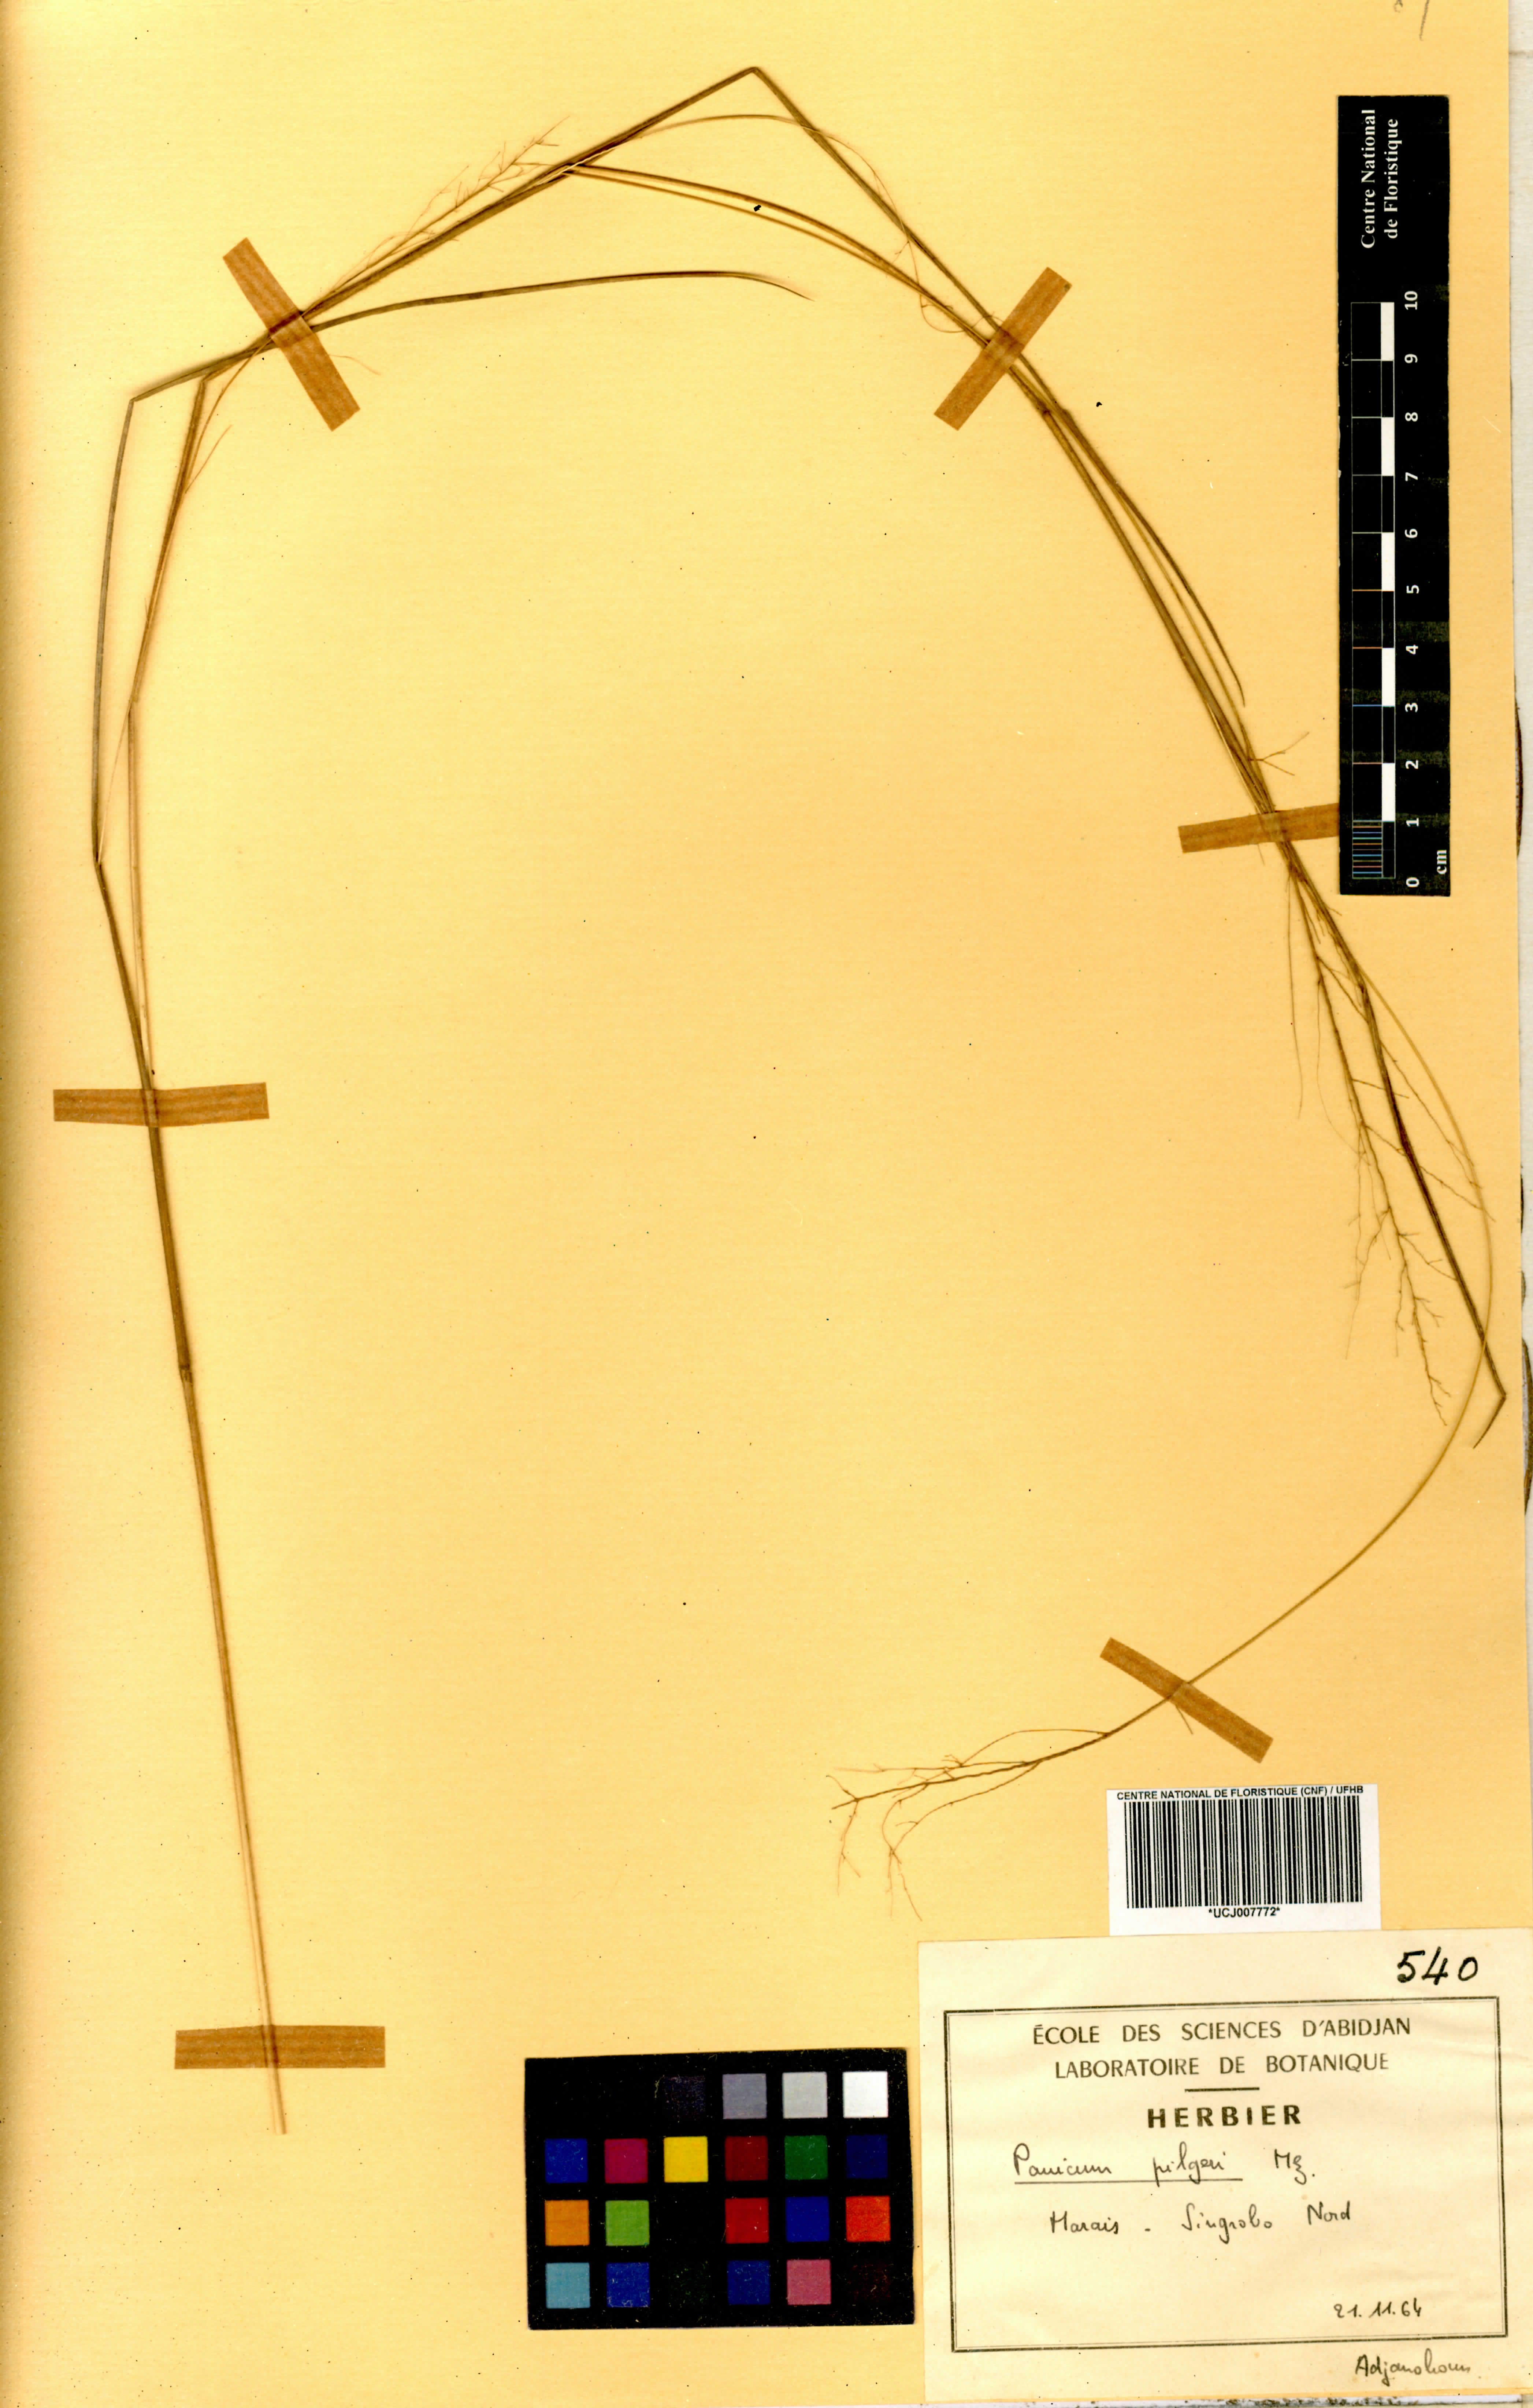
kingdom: Plantae
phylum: Tracheophyta
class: Liliopsida
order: Poales
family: Poaceae
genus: Panicum
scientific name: Panicum pilgeri
